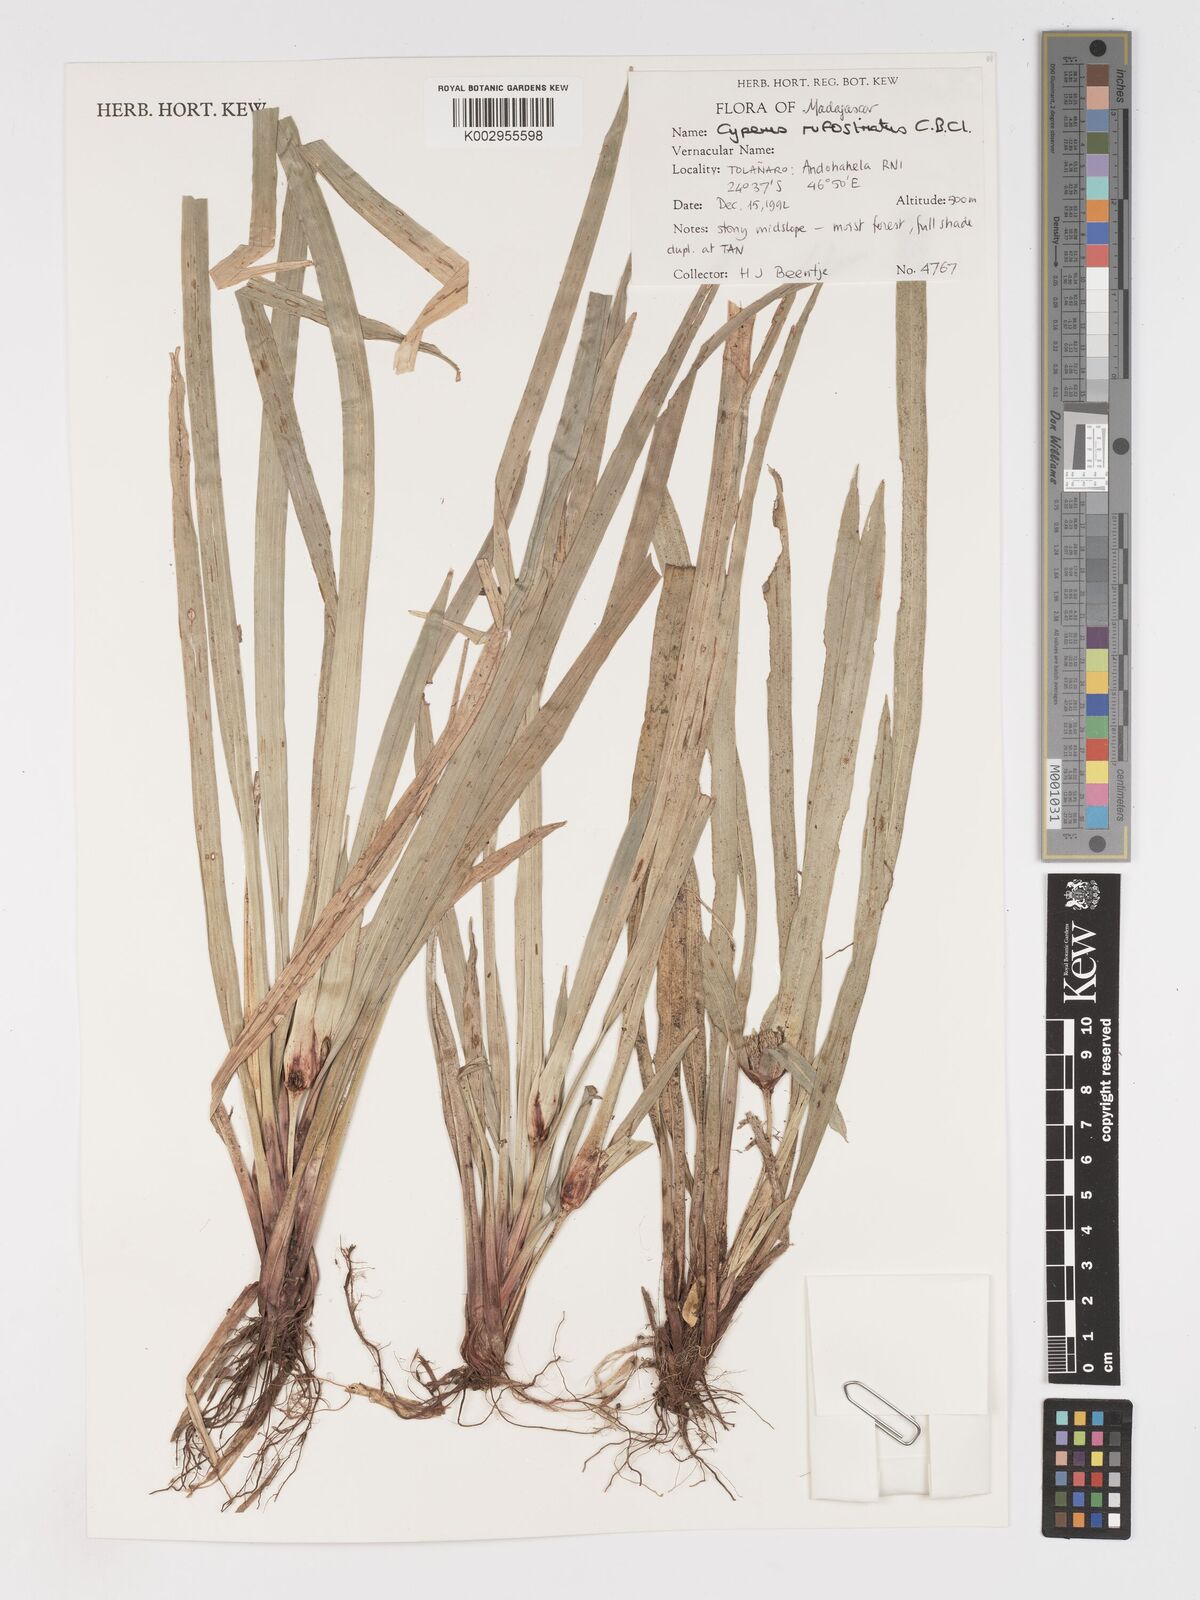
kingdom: Plantae
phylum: Tracheophyta
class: Liliopsida
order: Poales
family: Cyperaceae
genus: Cyperus
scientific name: Cyperus rufostriatus
